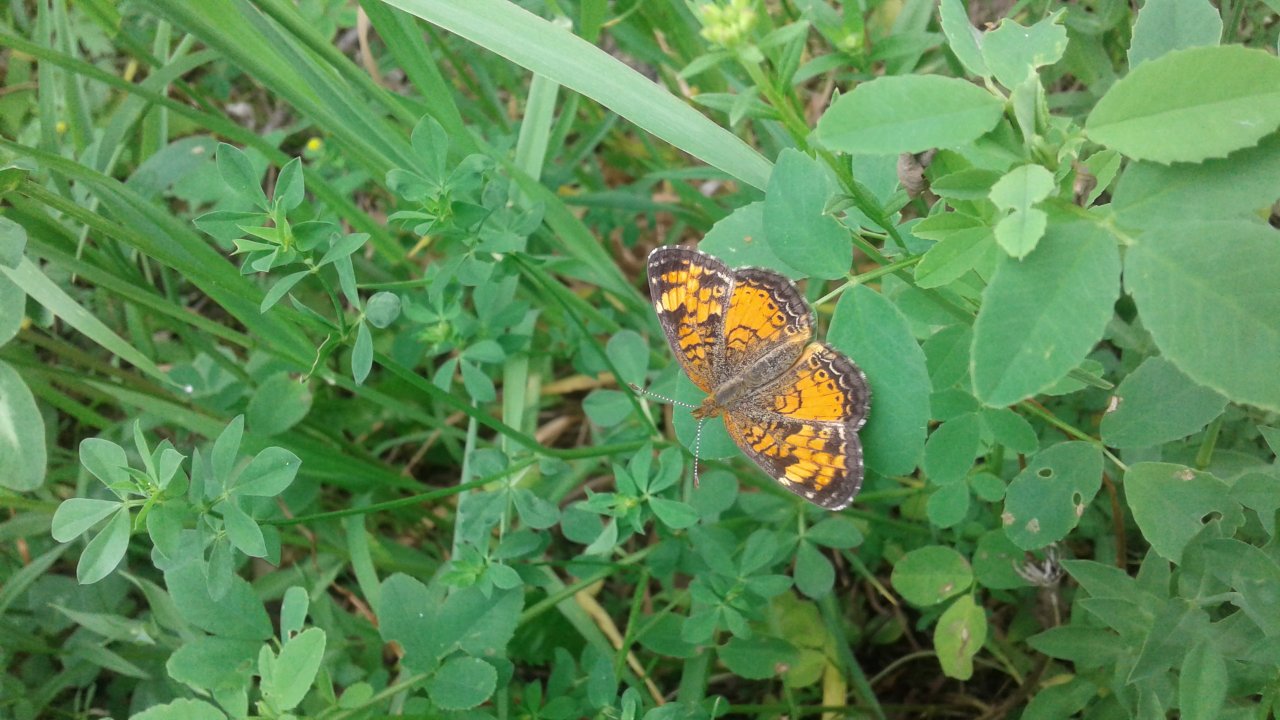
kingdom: Animalia
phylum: Arthropoda
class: Insecta
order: Lepidoptera
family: Nymphalidae
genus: Phyciodes
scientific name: Phyciodes tharos
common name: Pearl Crescent
